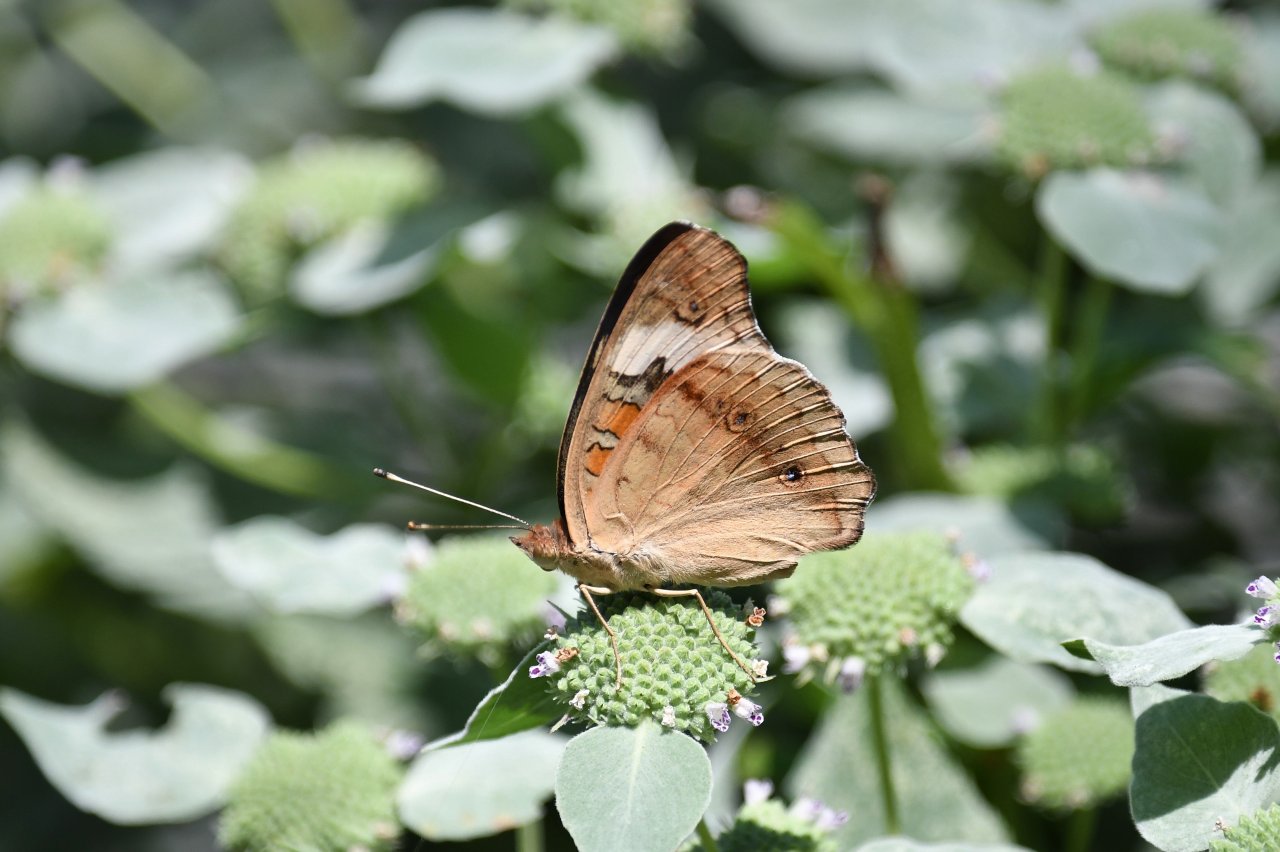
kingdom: Animalia
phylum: Arthropoda
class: Insecta
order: Lepidoptera
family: Nymphalidae
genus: Junonia
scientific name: Junonia coenia
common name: Common Buckeye
